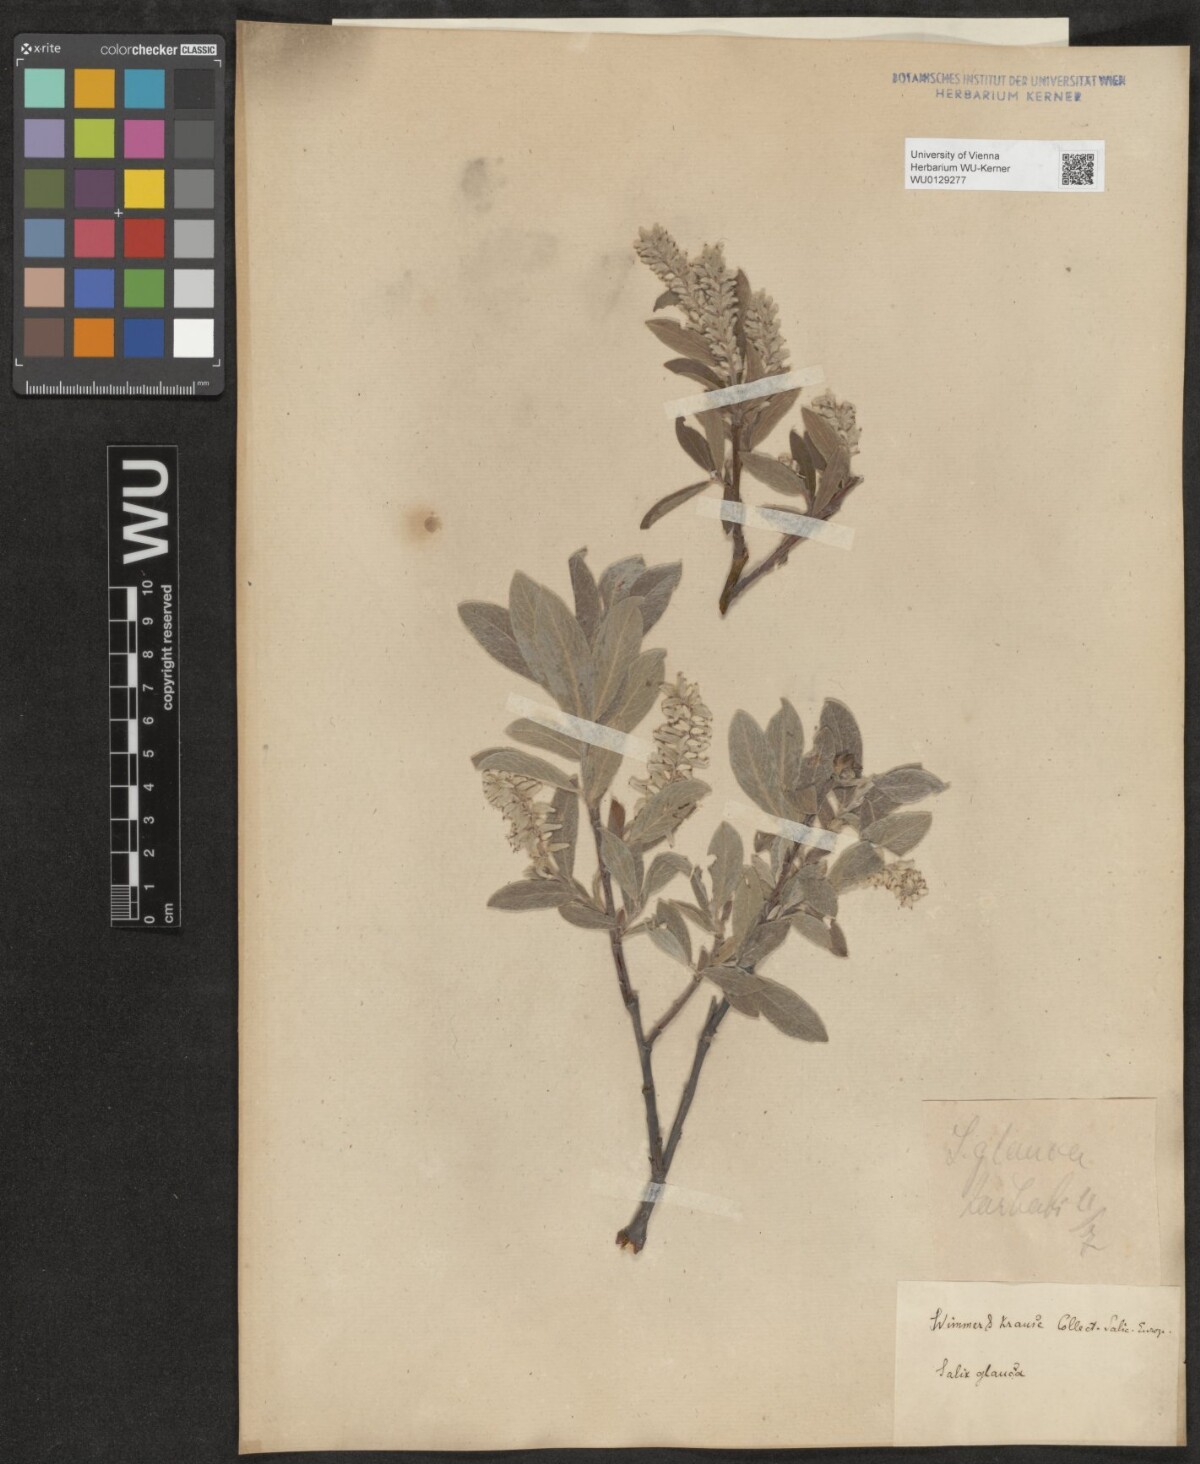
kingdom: Plantae
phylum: Tracheophyta
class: Magnoliopsida
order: Malpighiales
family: Salicaceae
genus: Salix
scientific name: Salix glauca
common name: Glaucous willow
